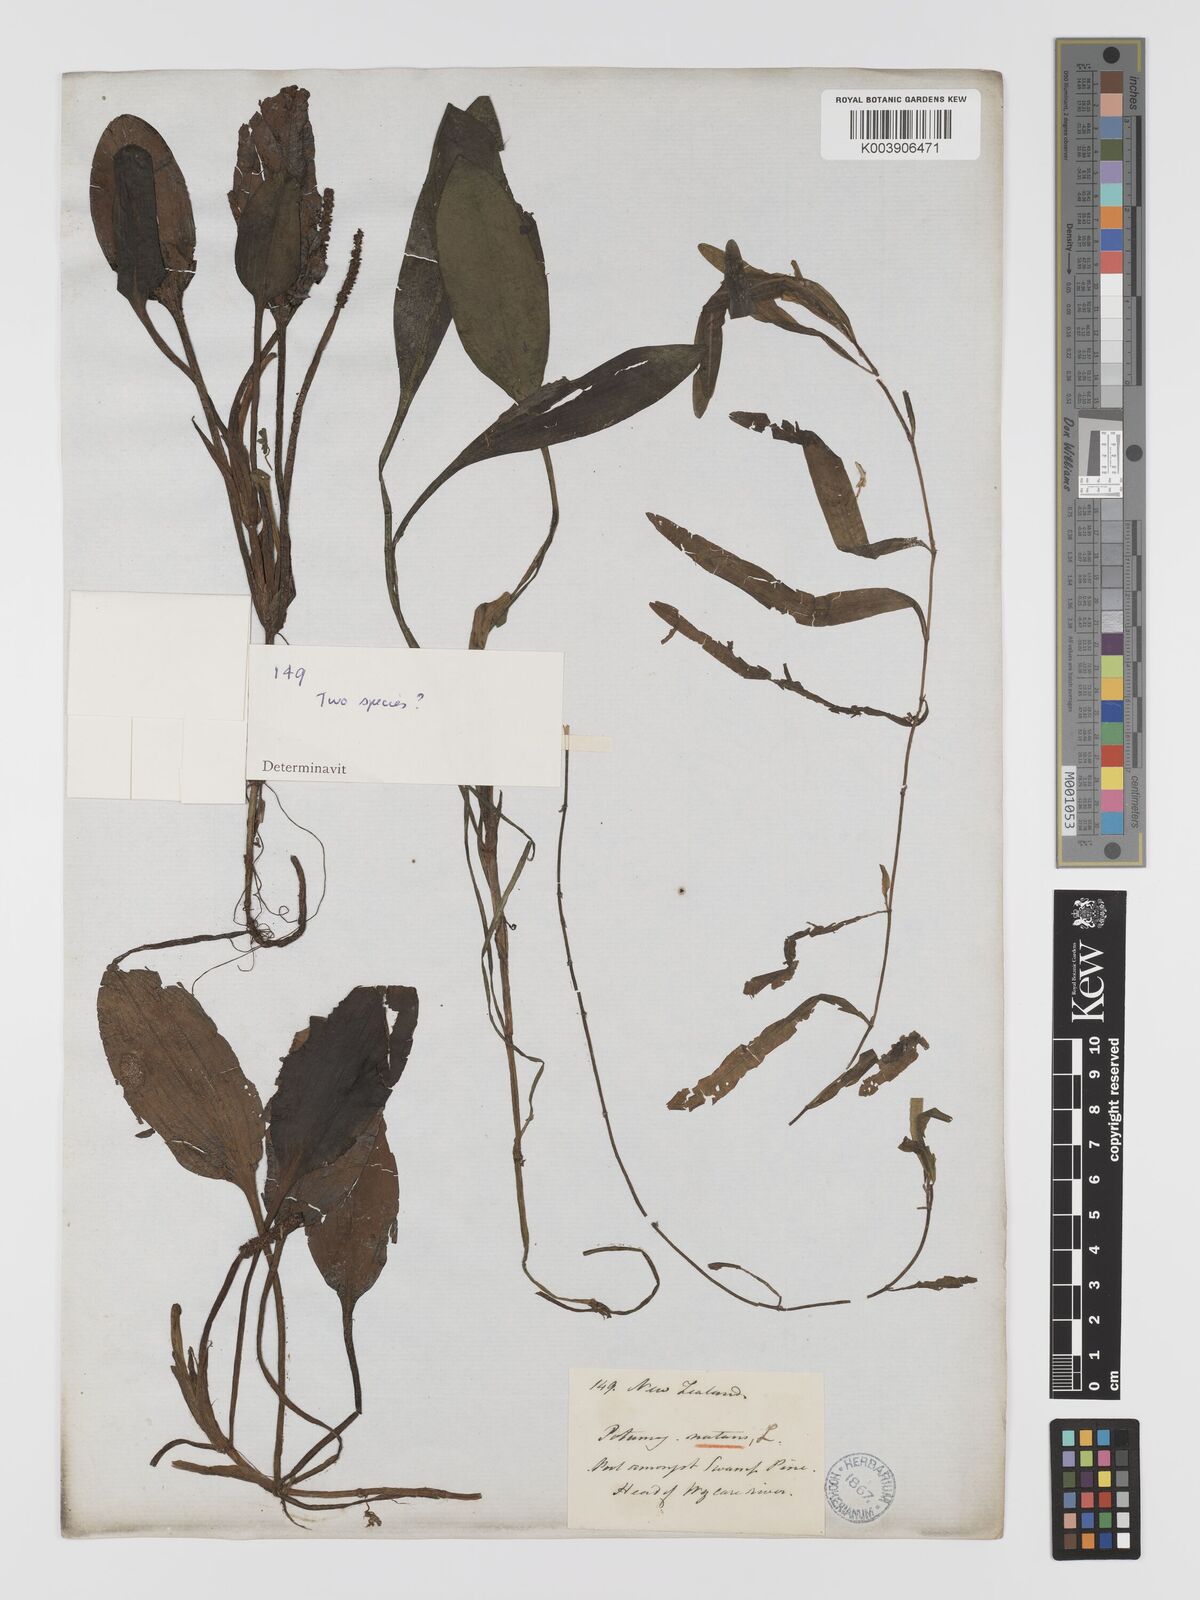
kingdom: Plantae
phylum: Tracheophyta
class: Liliopsida
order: Alismatales
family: Potamogetonaceae
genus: Potamogeton
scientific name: Potamogeton
